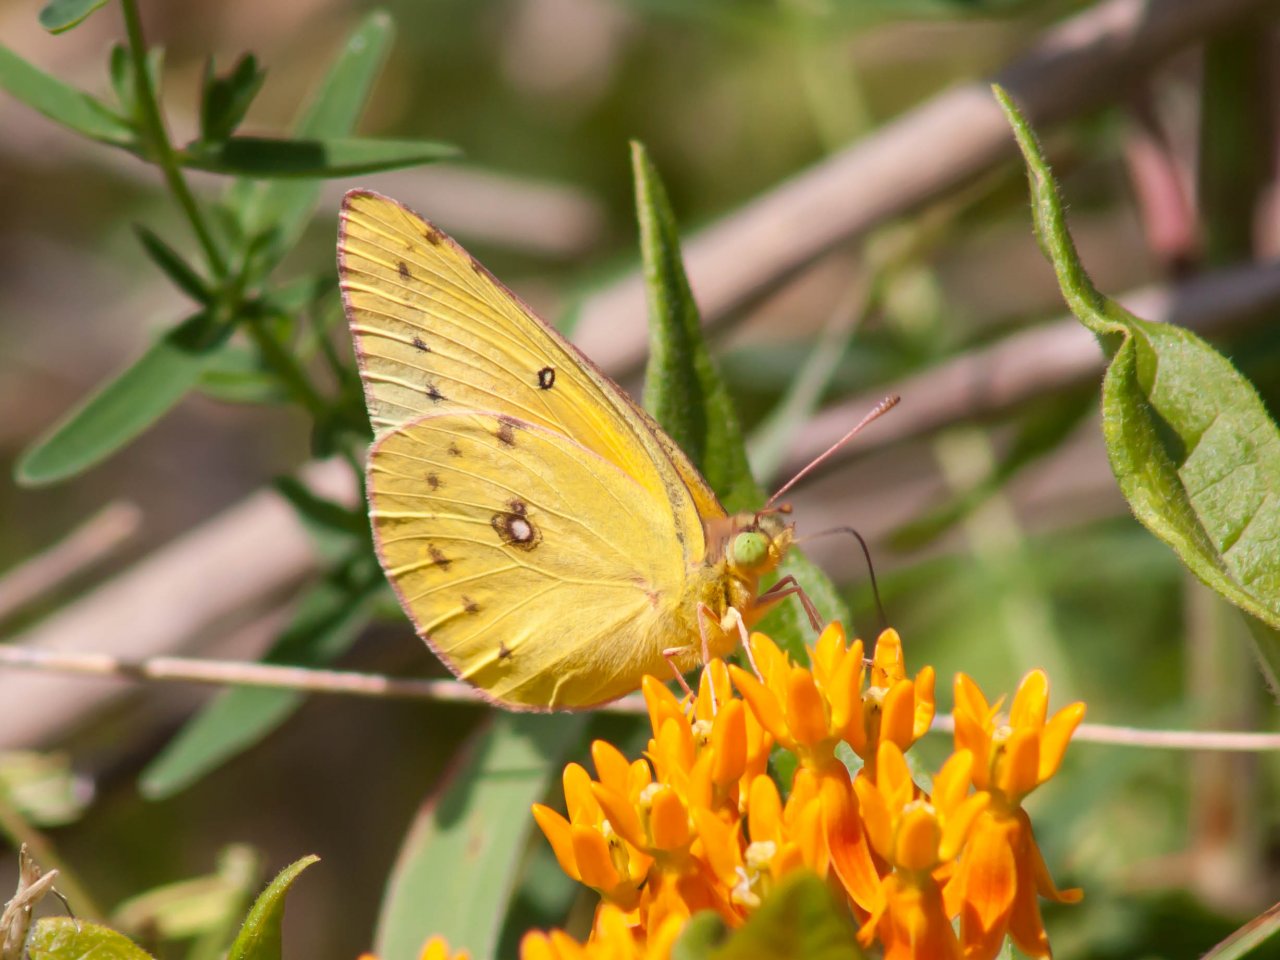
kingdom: Animalia
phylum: Arthropoda
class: Insecta
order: Lepidoptera
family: Pieridae
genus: Colias
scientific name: Colias eurytheme
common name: Orange Sulphur
